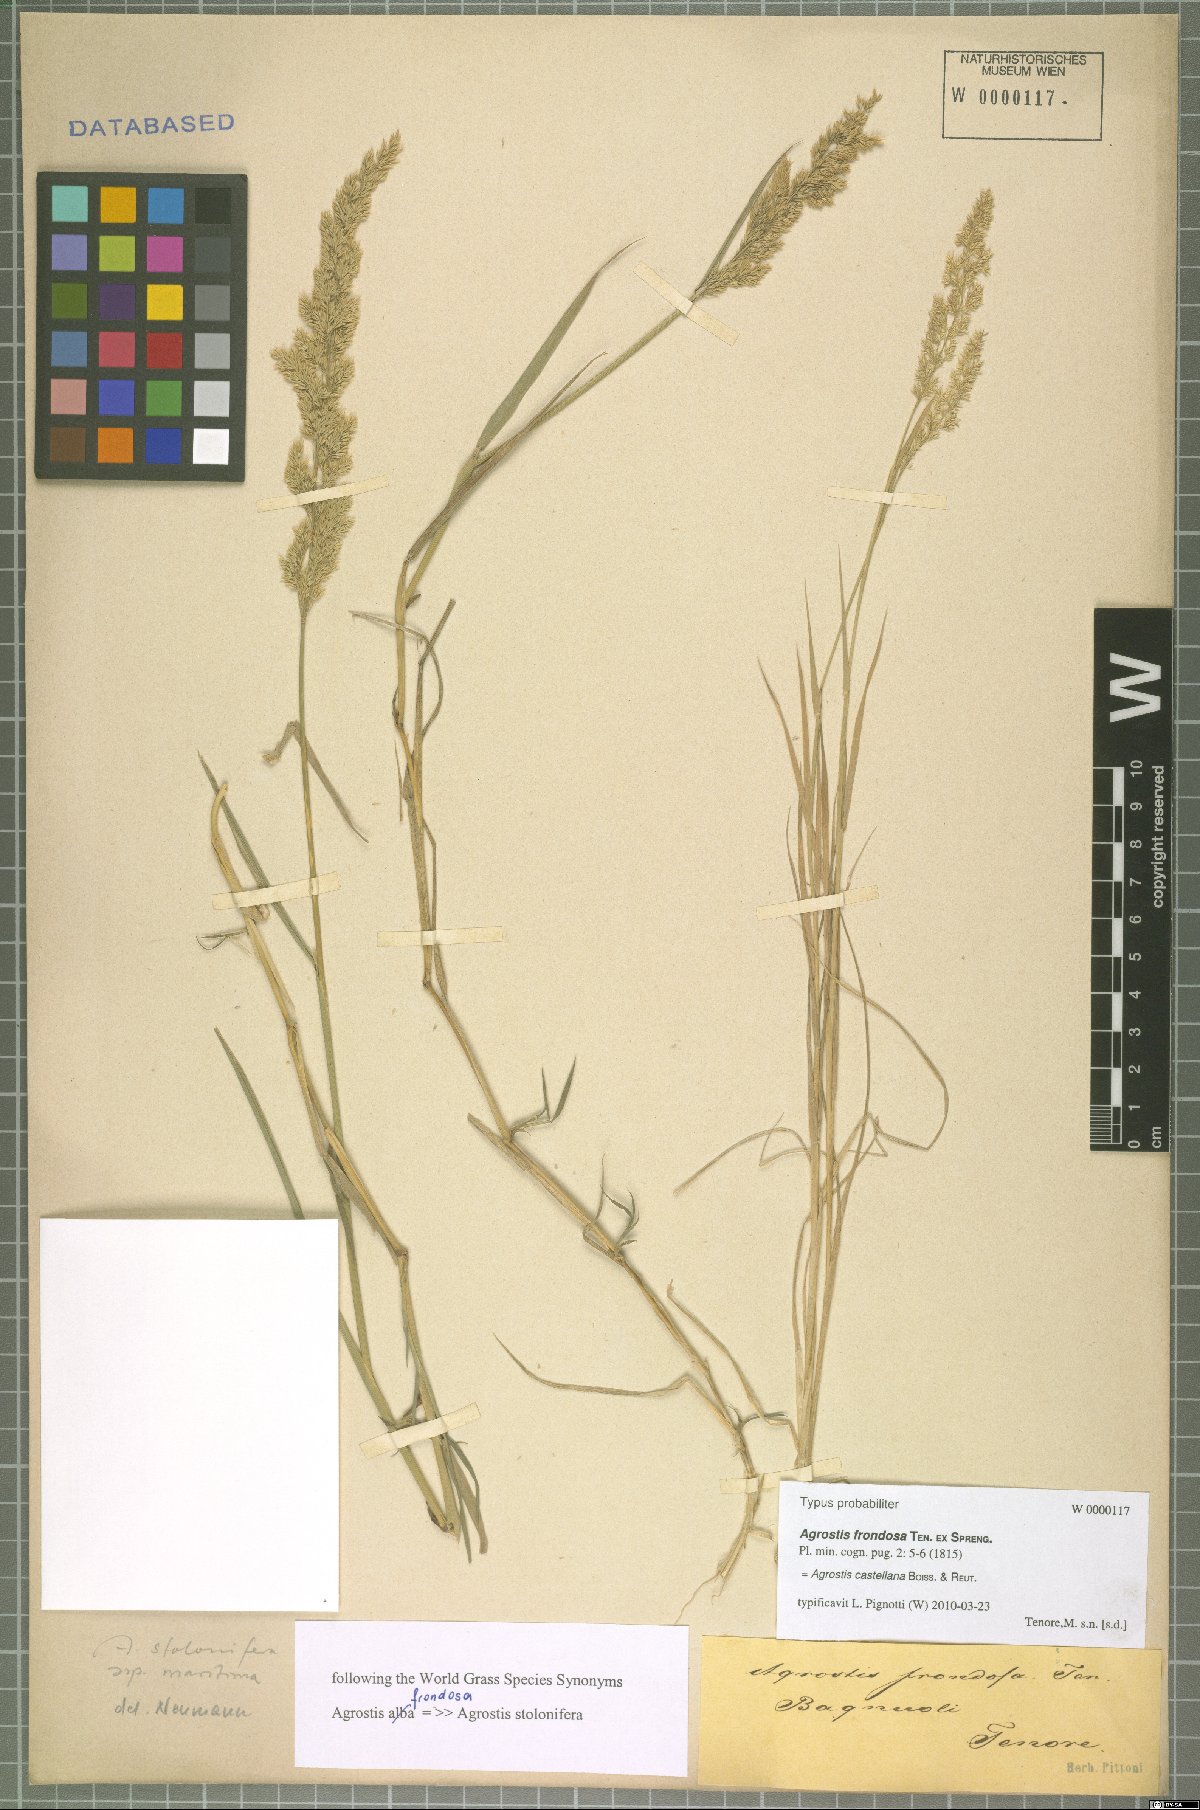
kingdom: Plantae
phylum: Tracheophyta
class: Liliopsida
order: Poales
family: Poaceae
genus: Agrostis
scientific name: Agrostis castellana
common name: Highland bent
